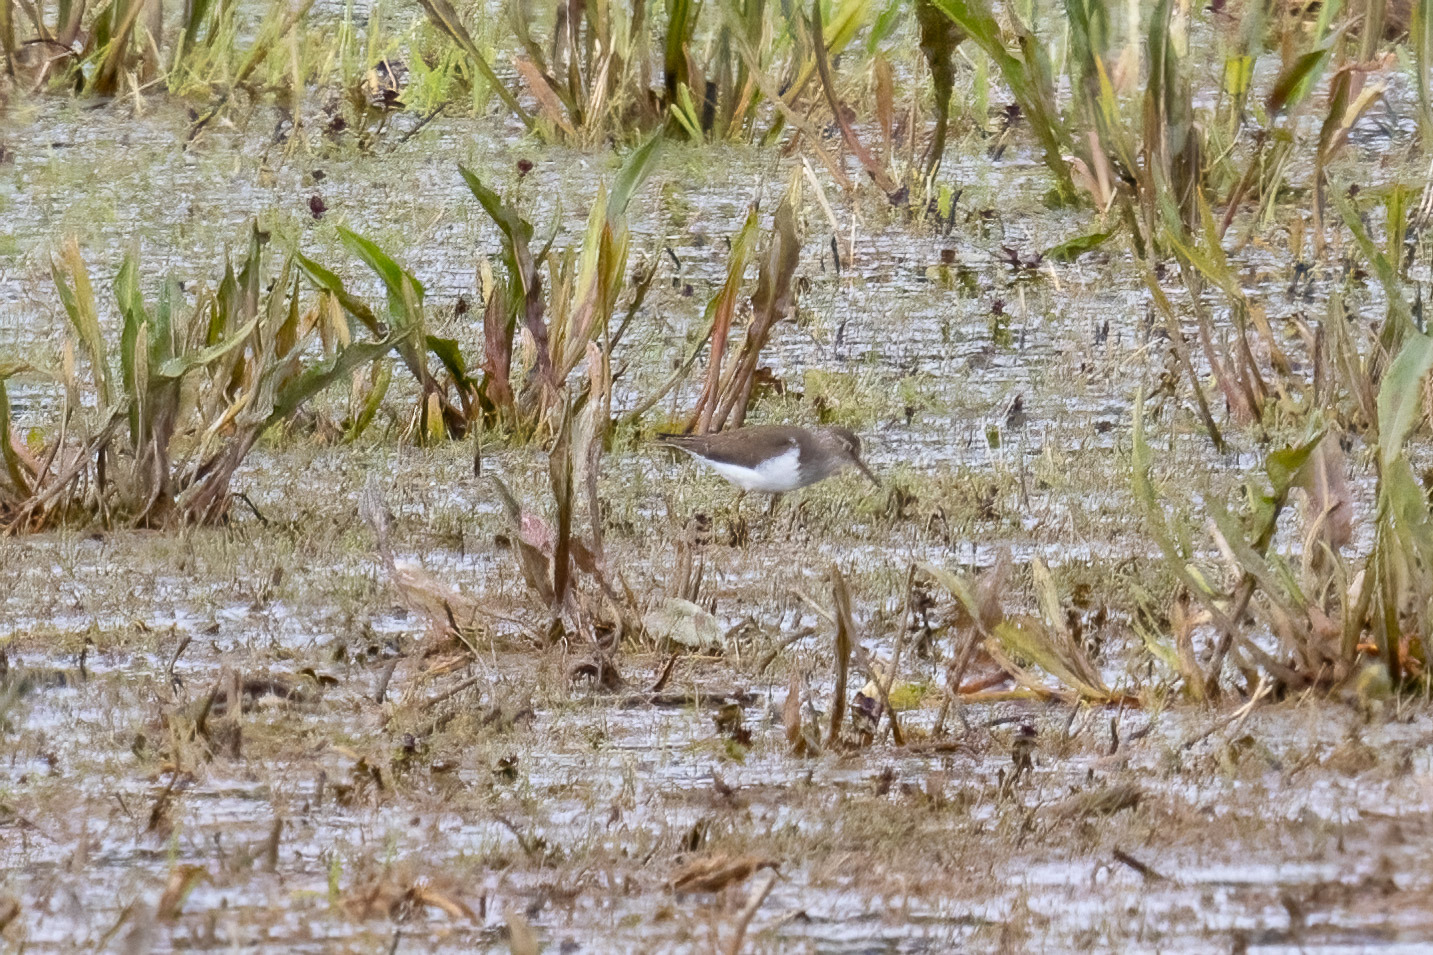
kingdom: Animalia
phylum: Chordata
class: Aves
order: Charadriiformes
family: Scolopacidae
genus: Actitis
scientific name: Actitis hypoleucos
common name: Mudderklire
